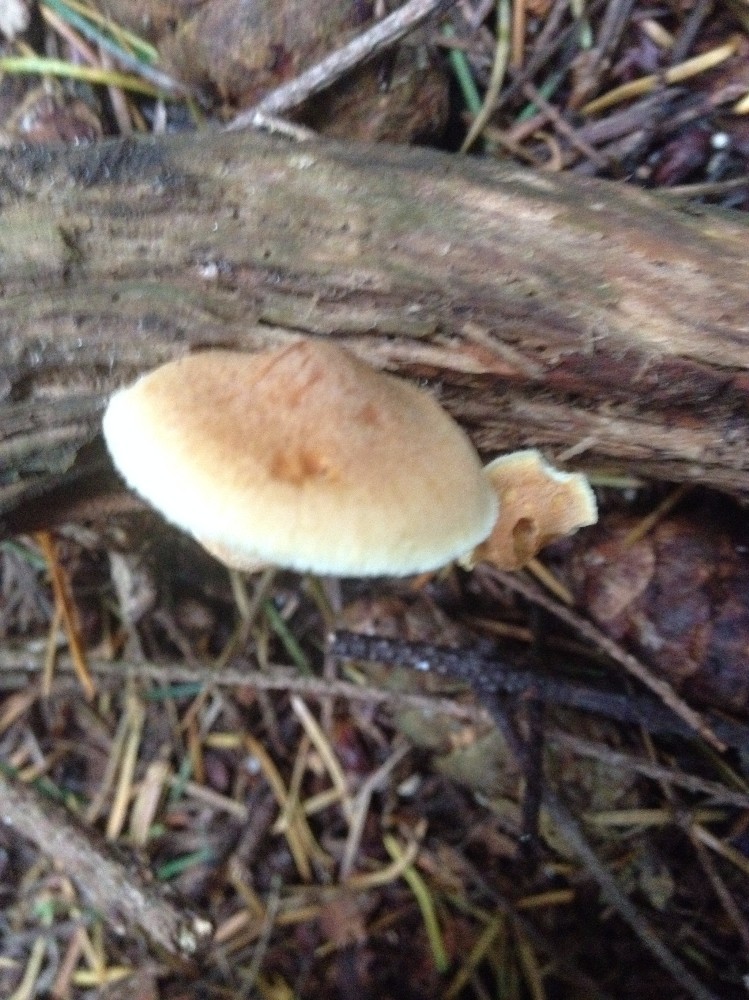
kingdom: Fungi
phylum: Basidiomycota
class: Agaricomycetes
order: Agaricales
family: Hymenogastraceae
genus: Gymnopilus
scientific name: Gymnopilus
